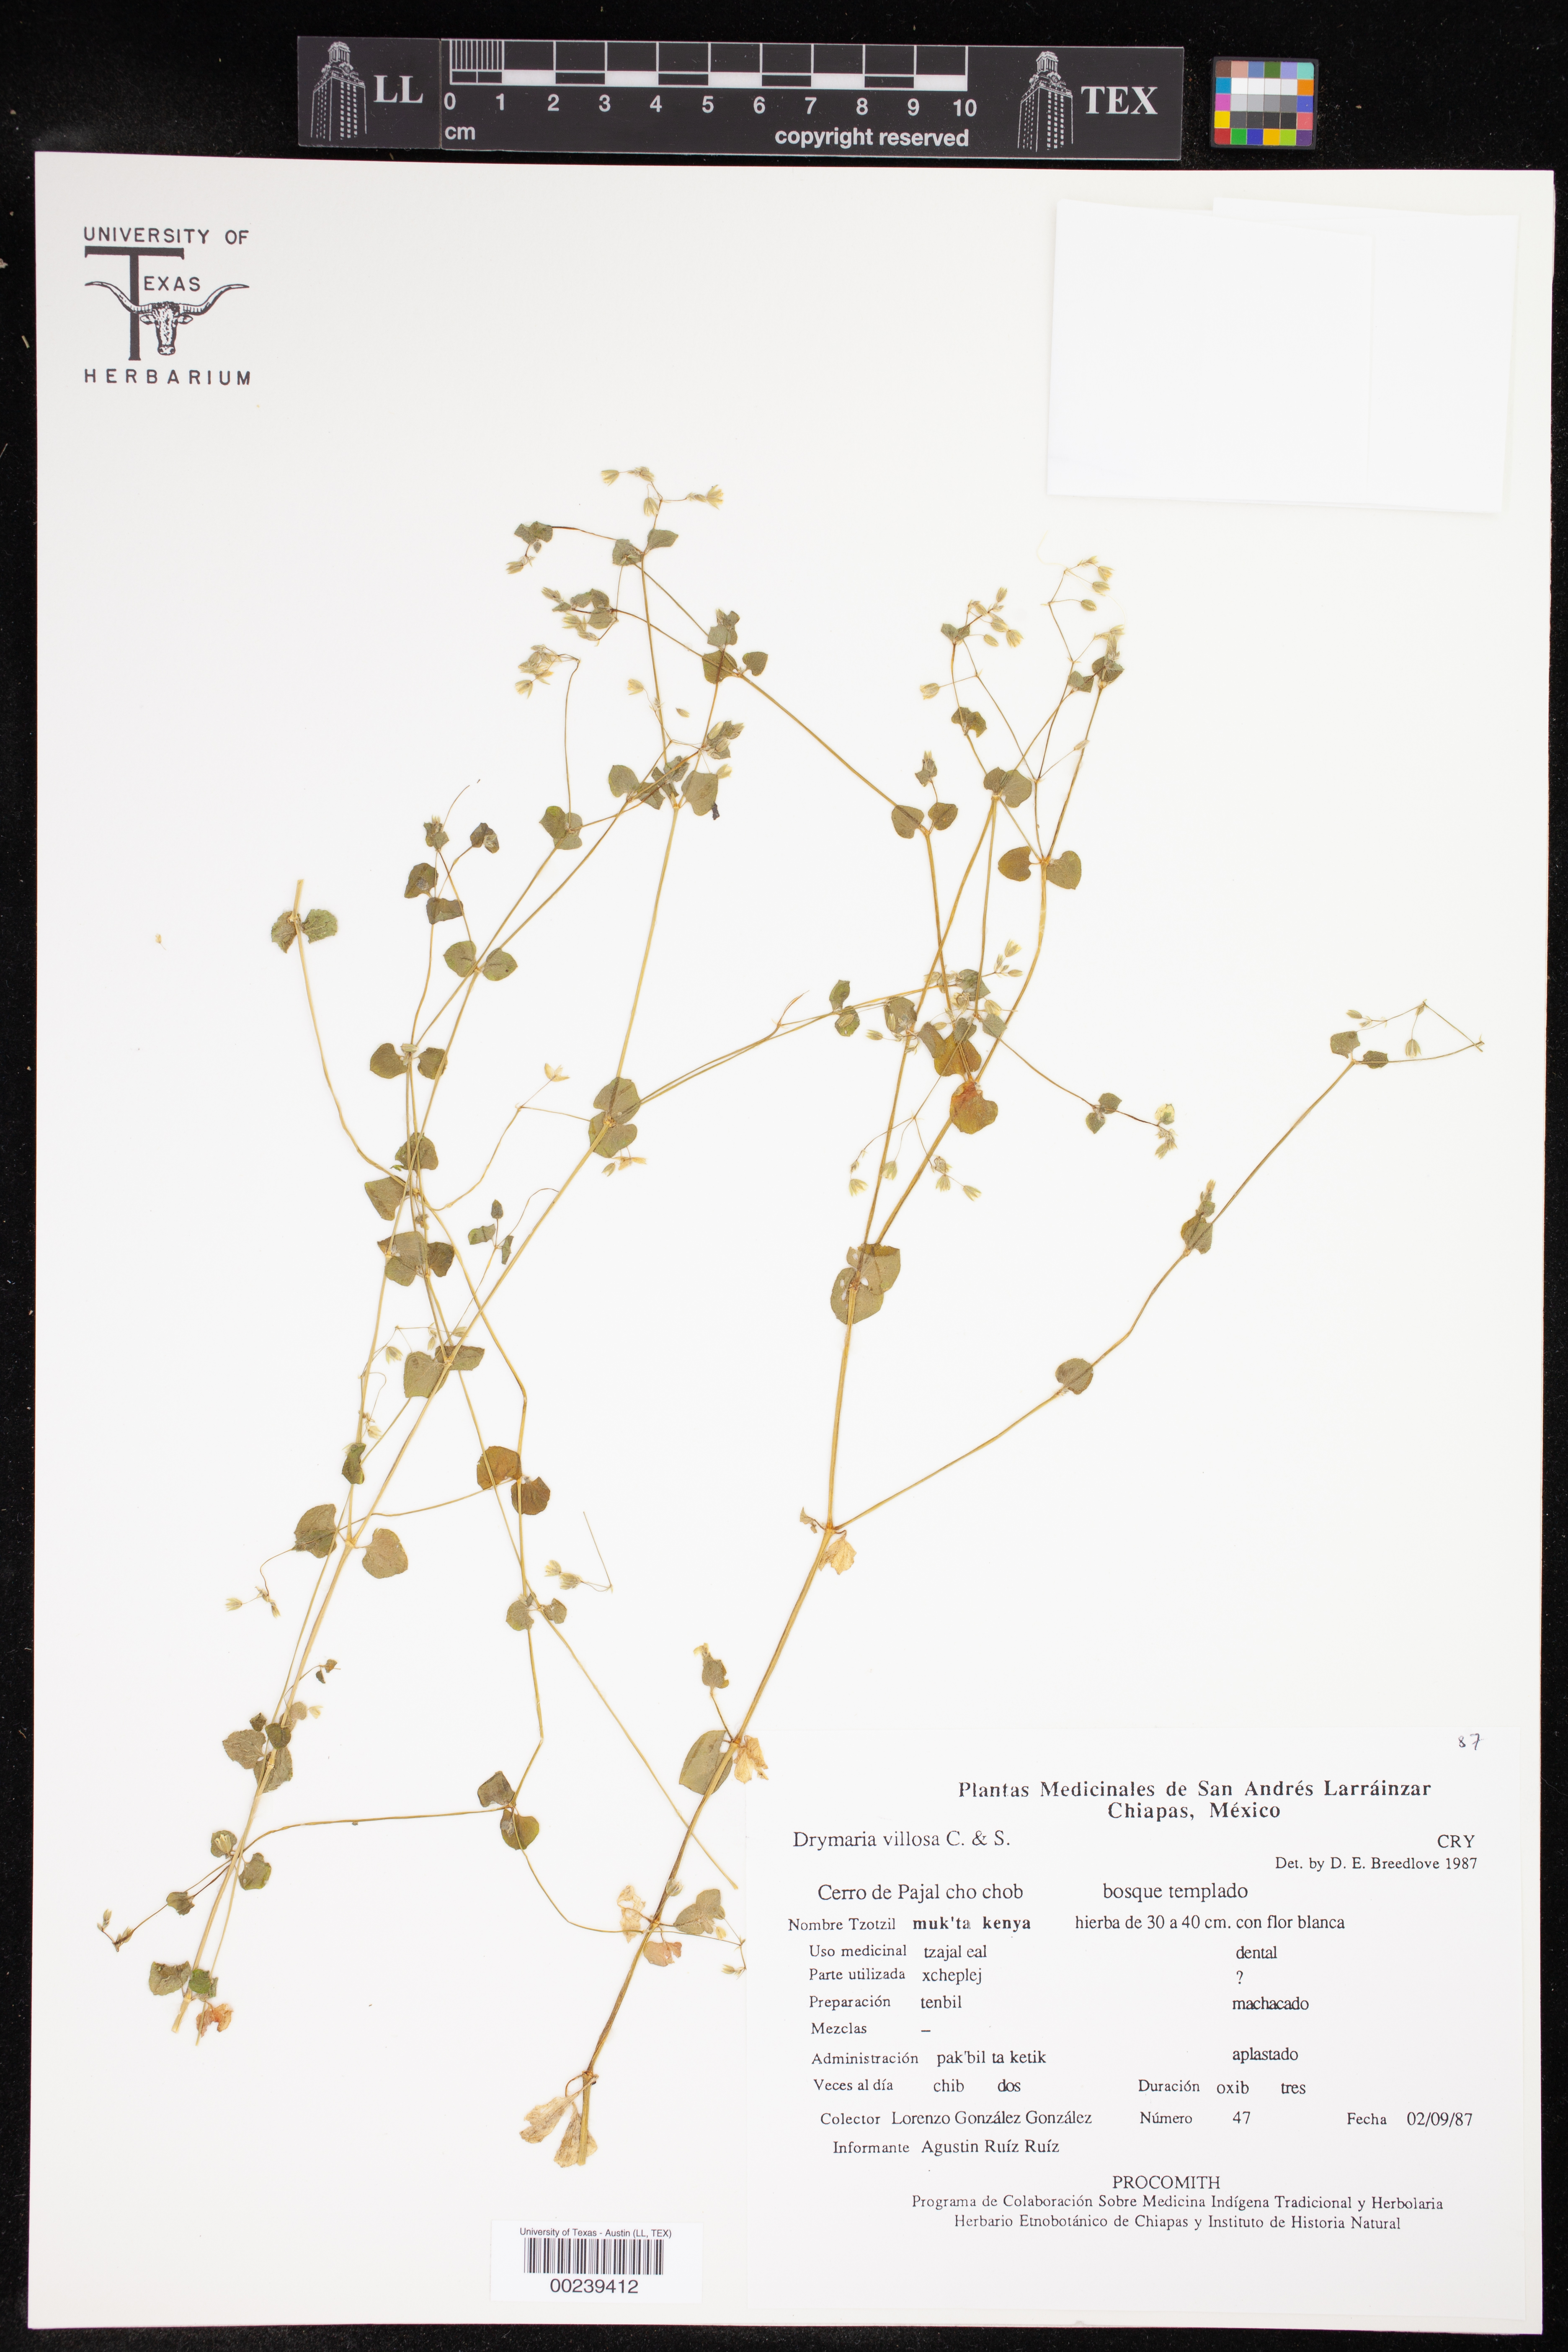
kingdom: Plantae
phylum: Tracheophyta
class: Magnoliopsida
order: Caryophyllales
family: Caryophyllaceae
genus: Drymaria
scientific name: Drymaria villosa
